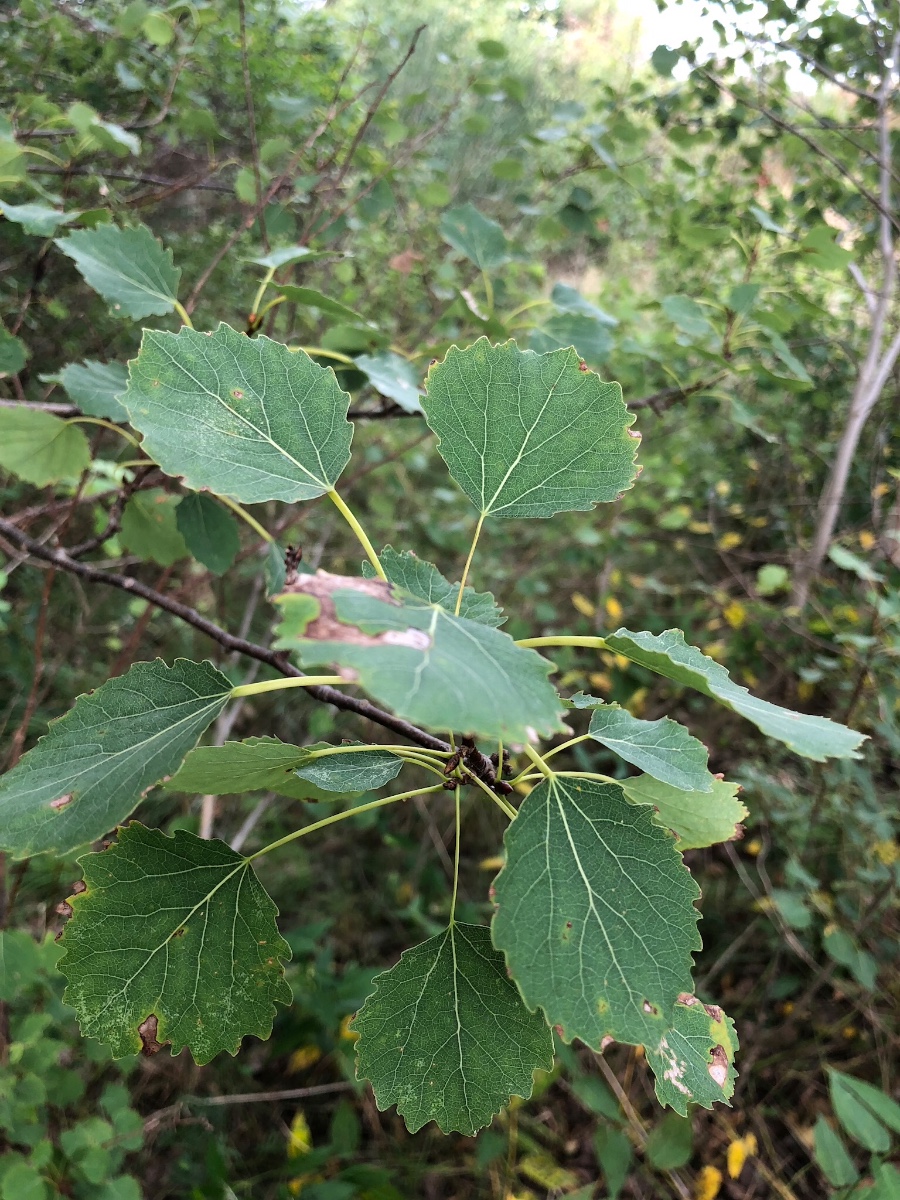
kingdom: Fungi
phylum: Basidiomycota
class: Agaricomycetes
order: Boletales
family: Boletaceae
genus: Leccinum
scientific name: Leccinum albostipitatum
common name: aspe-skælrørhat
